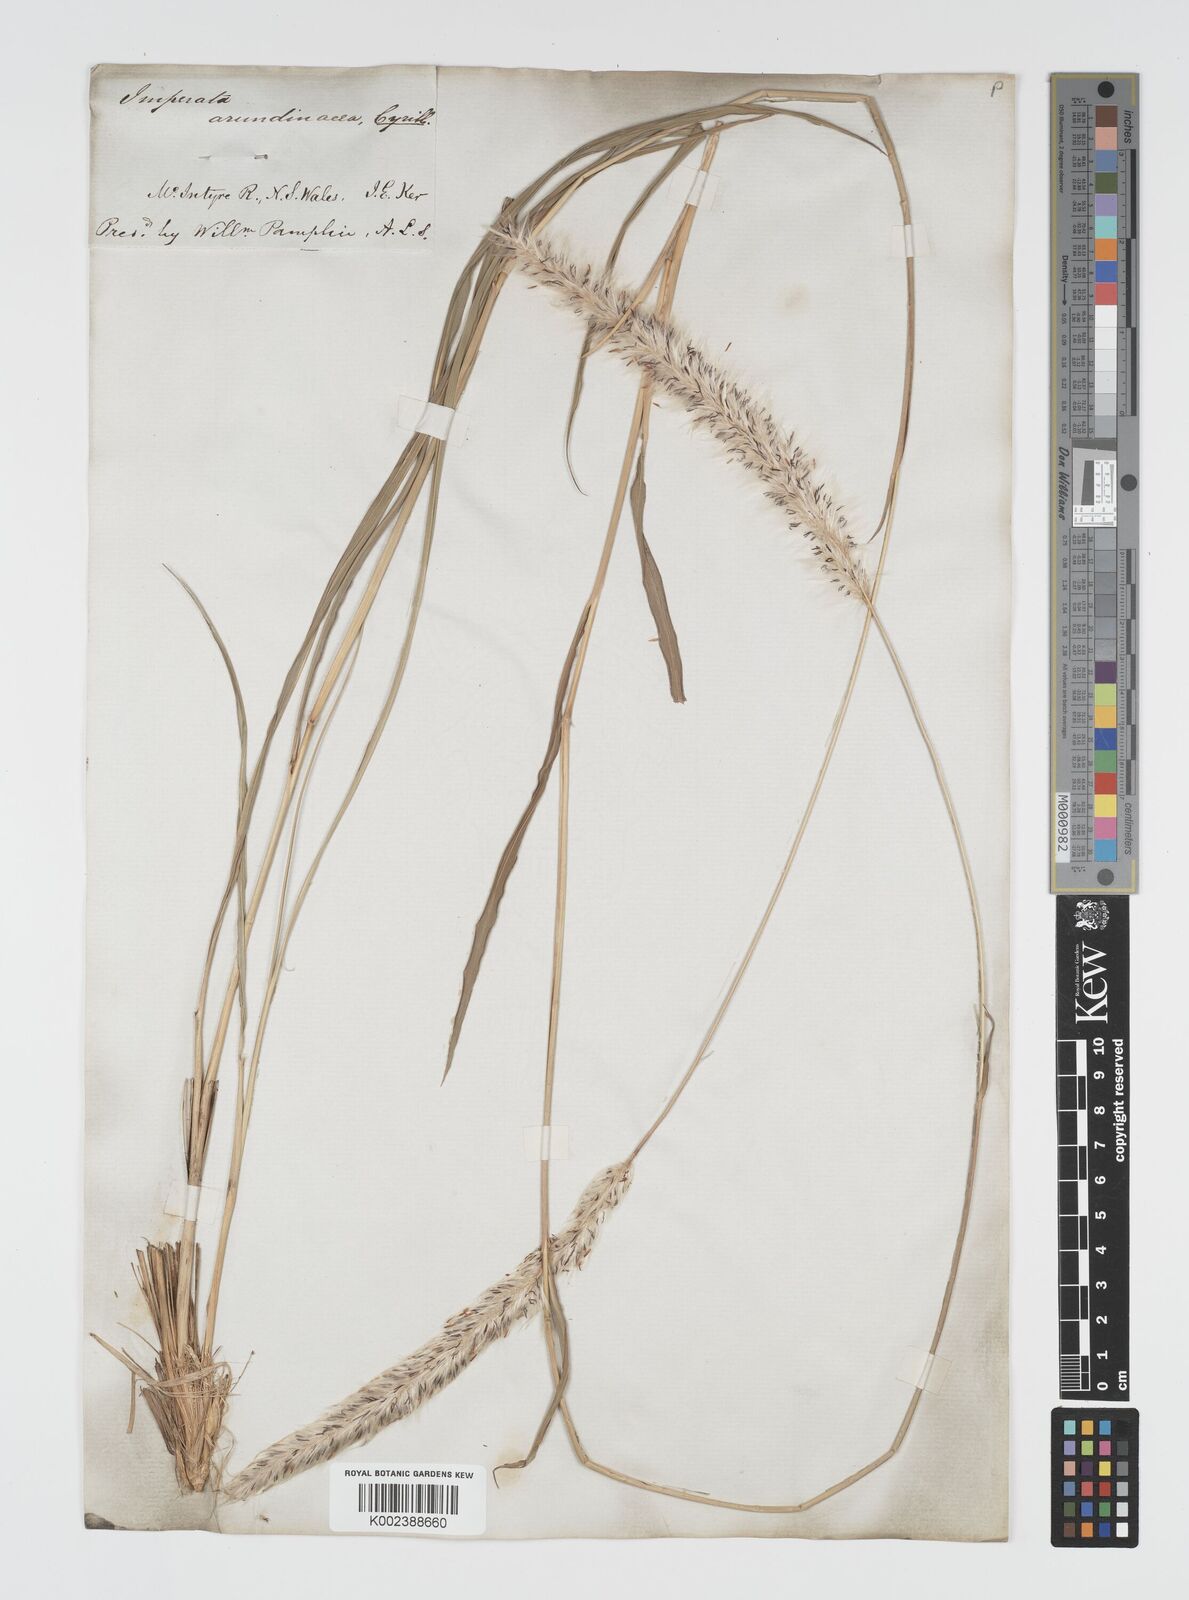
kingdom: Plantae
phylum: Tracheophyta
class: Liliopsida
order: Poales
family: Poaceae
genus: Imperata
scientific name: Imperata cylindrica
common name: Cogongrass
